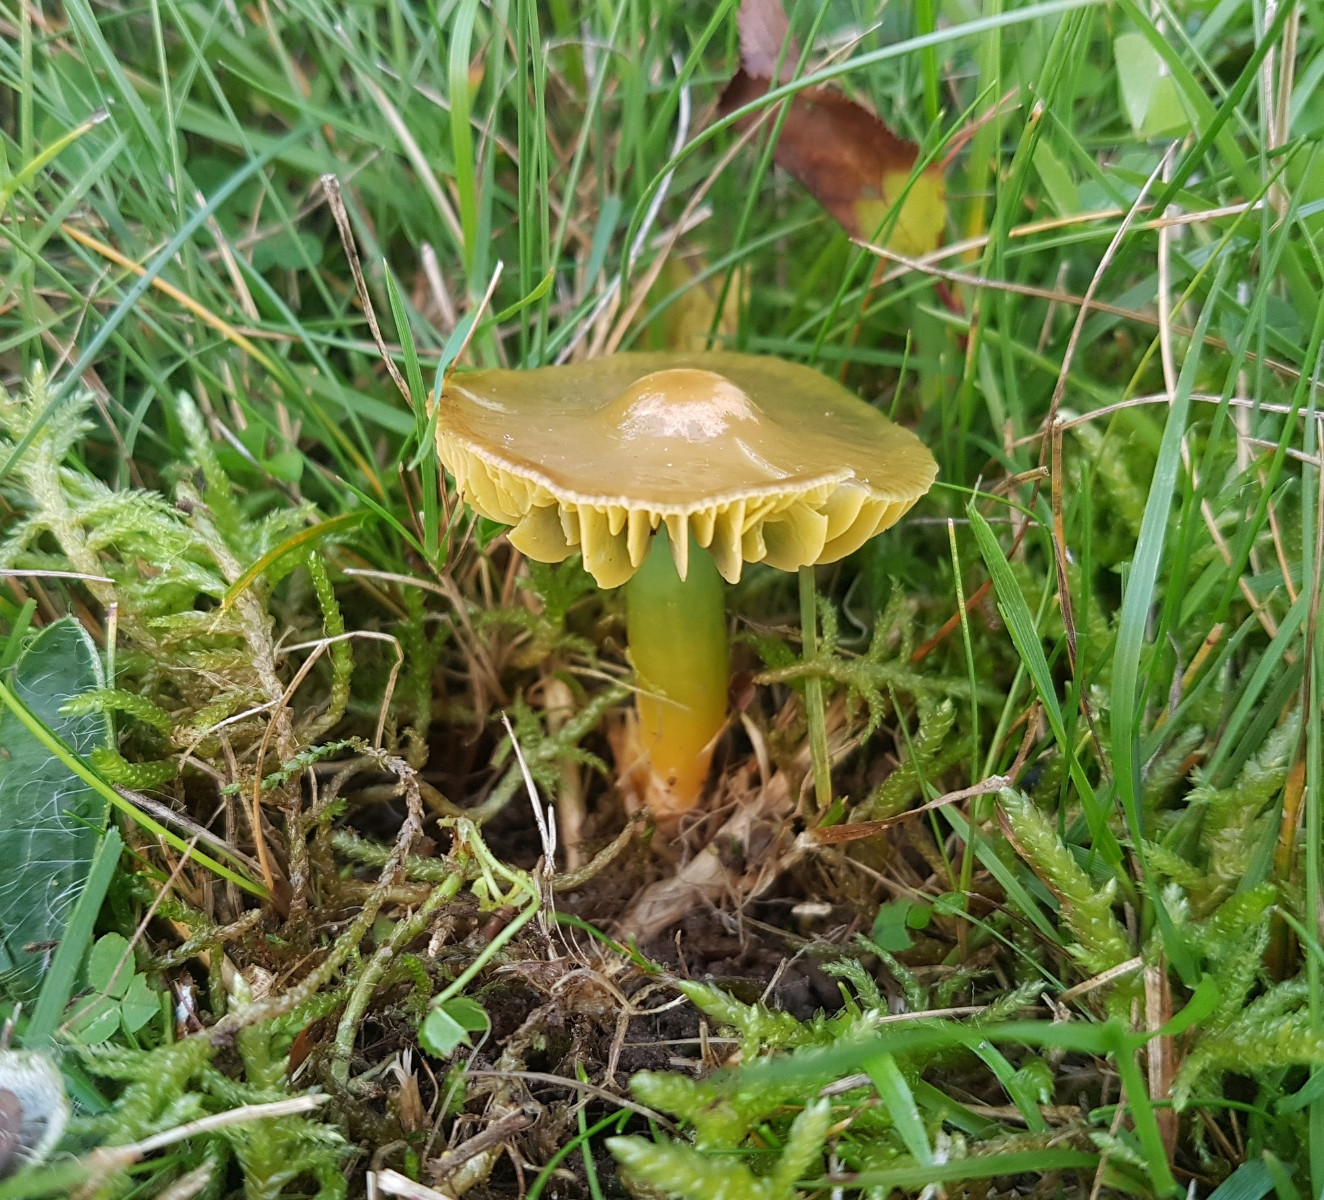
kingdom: Fungi
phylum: Basidiomycota
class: Agaricomycetes
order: Agaricales
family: Hygrophoraceae
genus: Gliophorus
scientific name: Gliophorus psittacinus
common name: papegøje-vokshat
